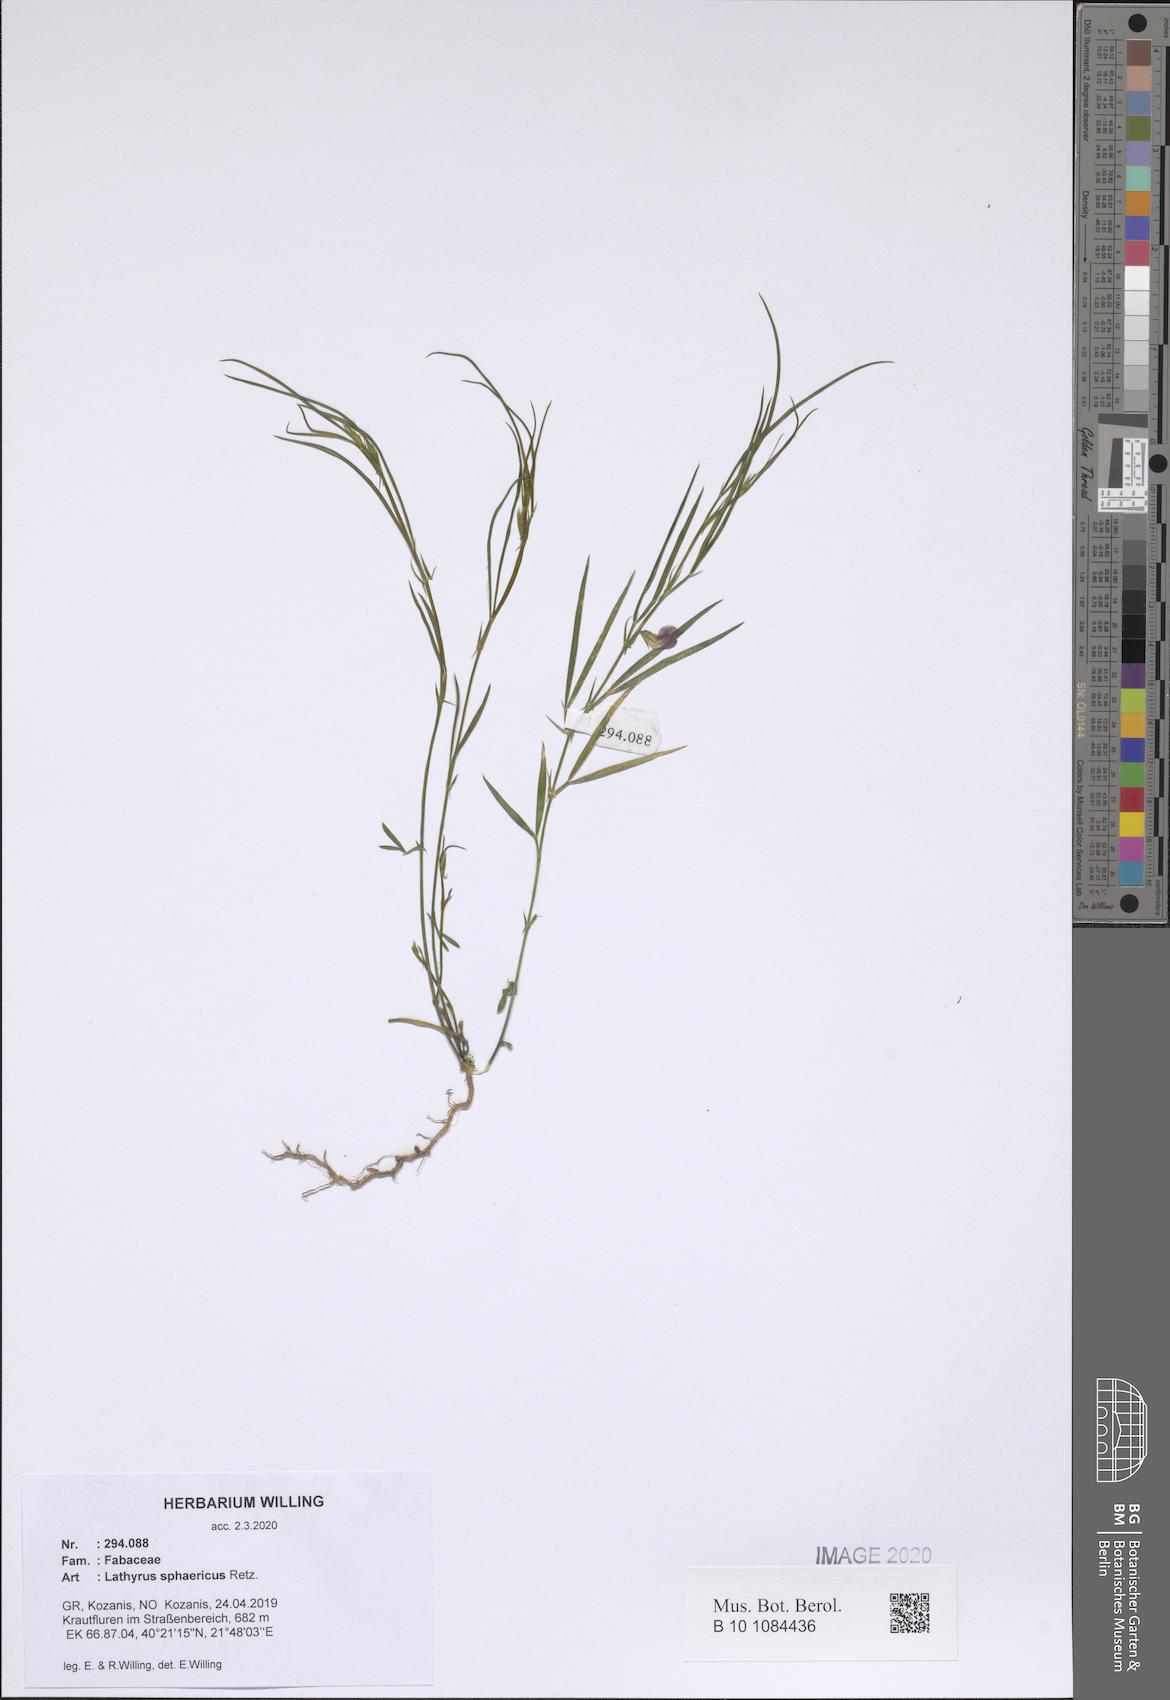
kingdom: Plantae
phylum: Tracheophyta
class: Magnoliopsida
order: Fabales
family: Fabaceae
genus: Lathyrus
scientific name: Lathyrus sphaericus
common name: Grass pea
